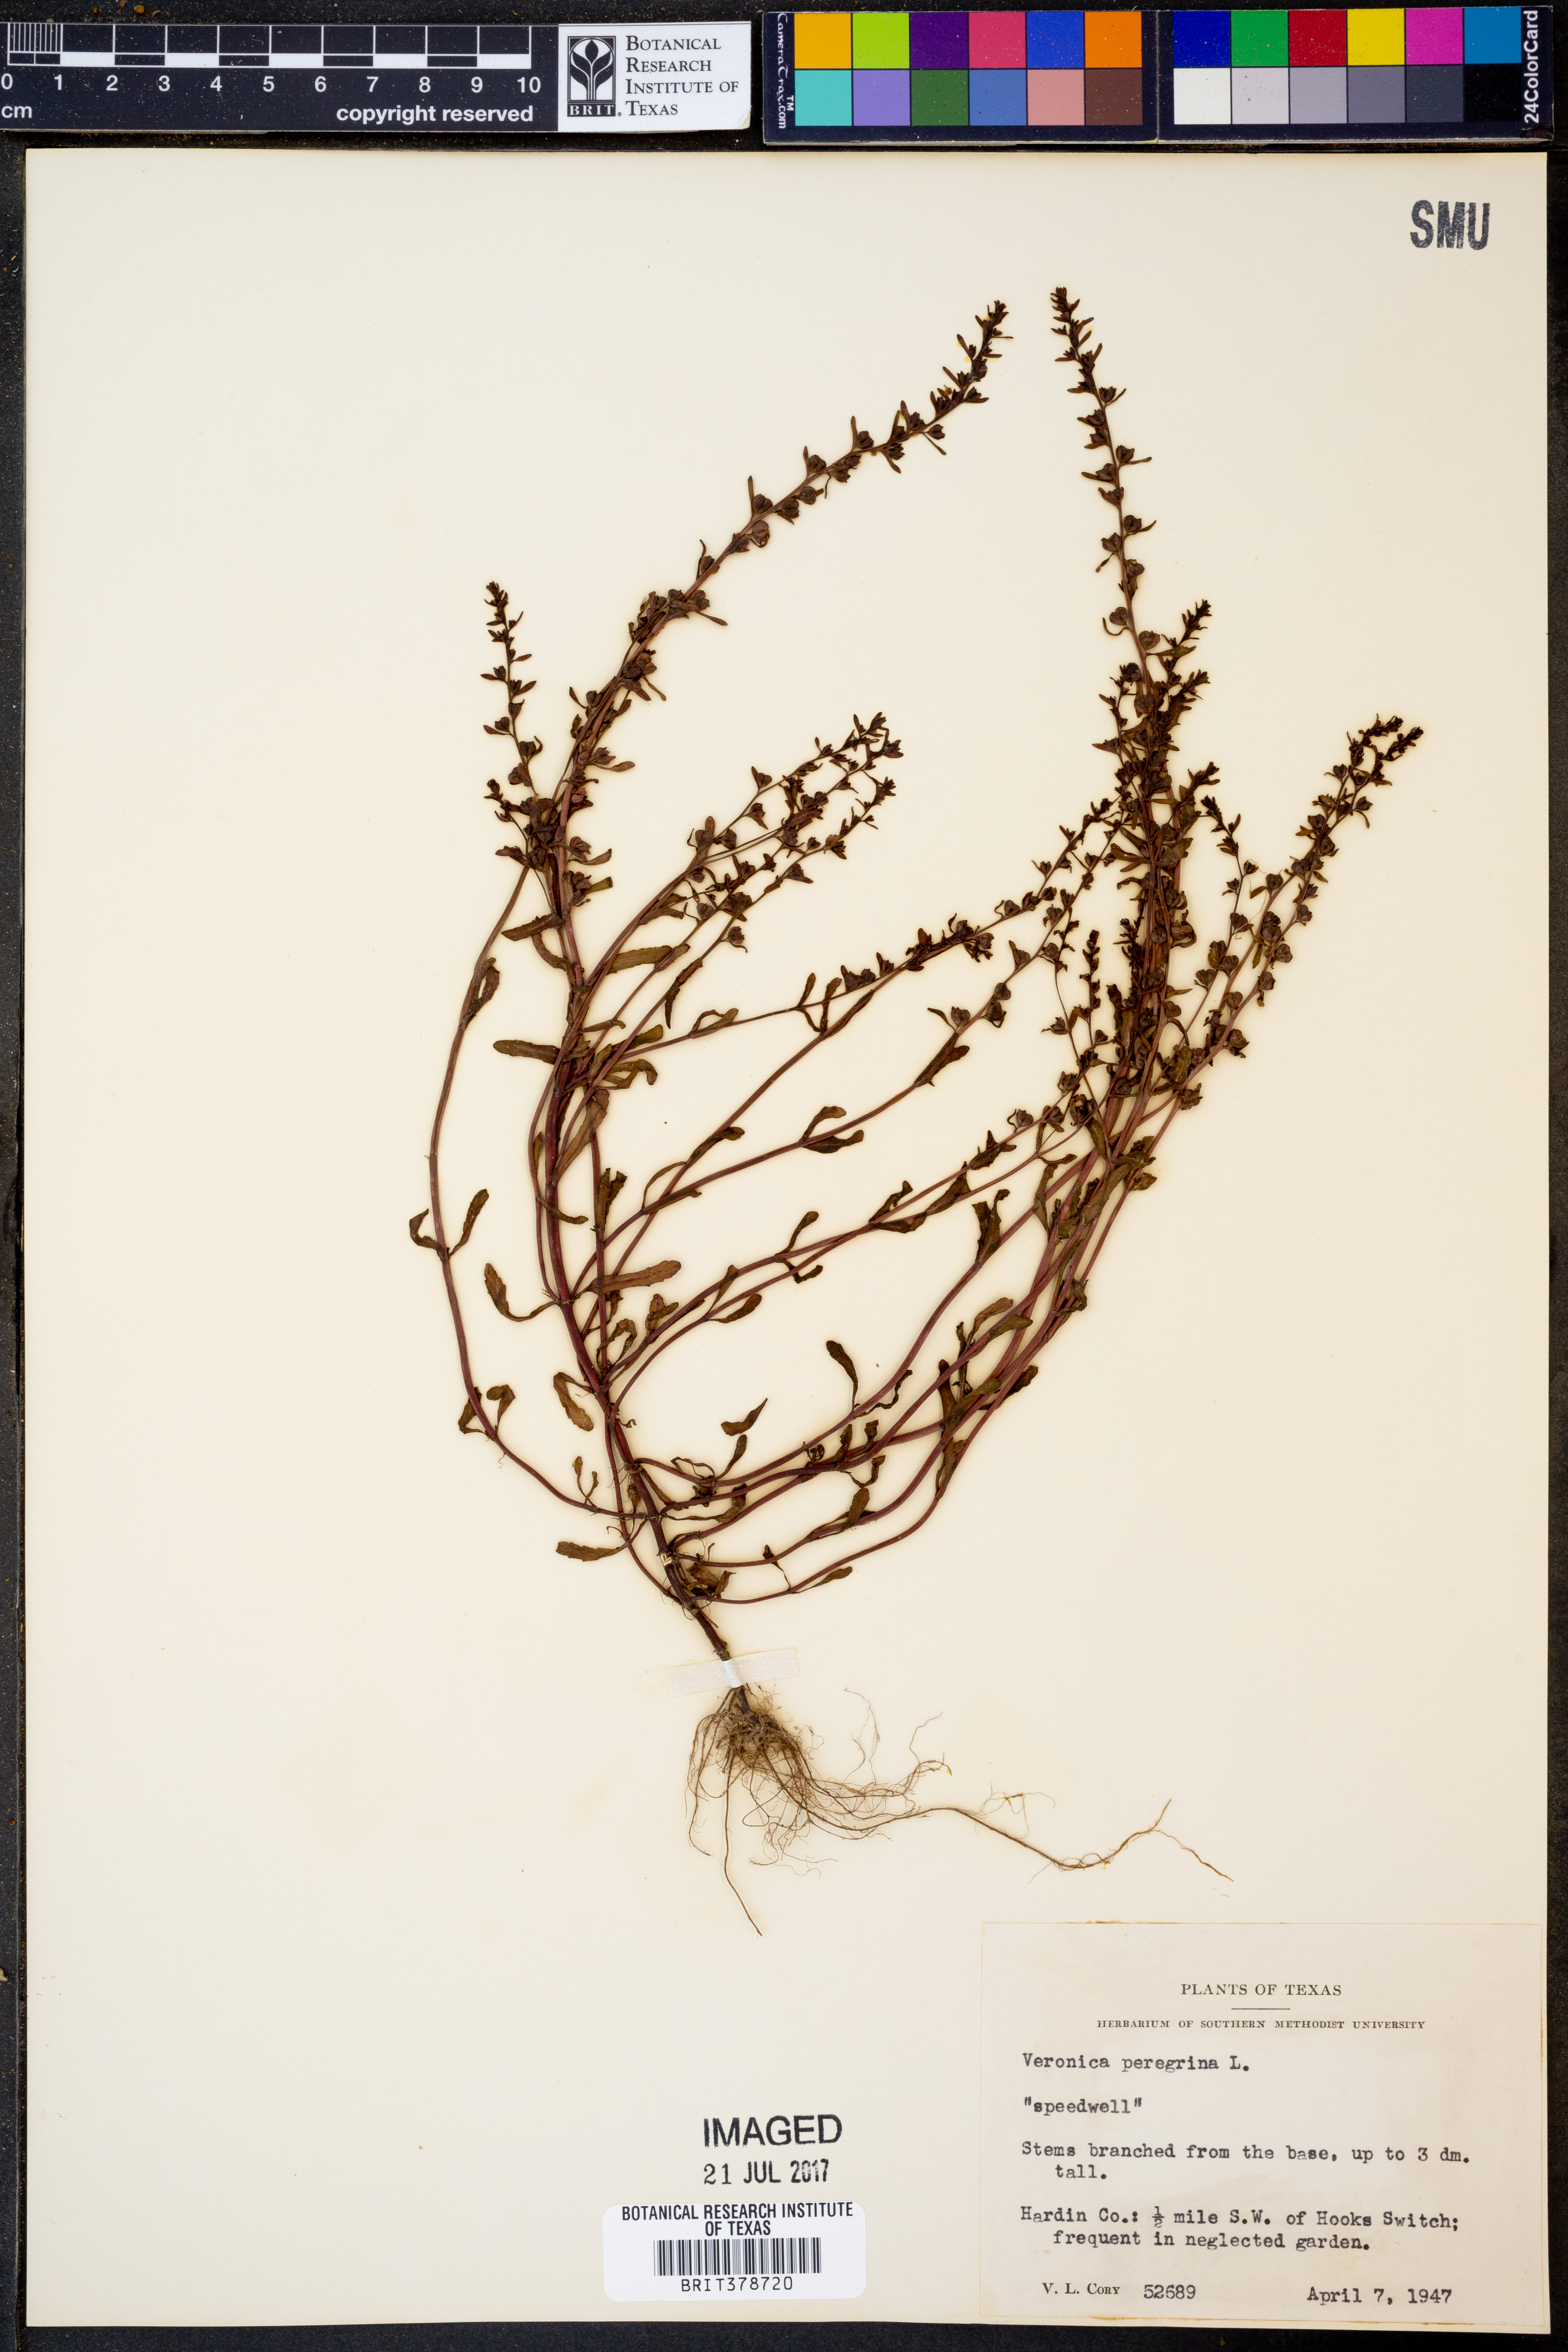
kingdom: Plantae
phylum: Tracheophyta
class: Magnoliopsida
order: Lamiales
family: Plantaginaceae
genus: Veronica
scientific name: Veronica peregrina
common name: Neckweed
